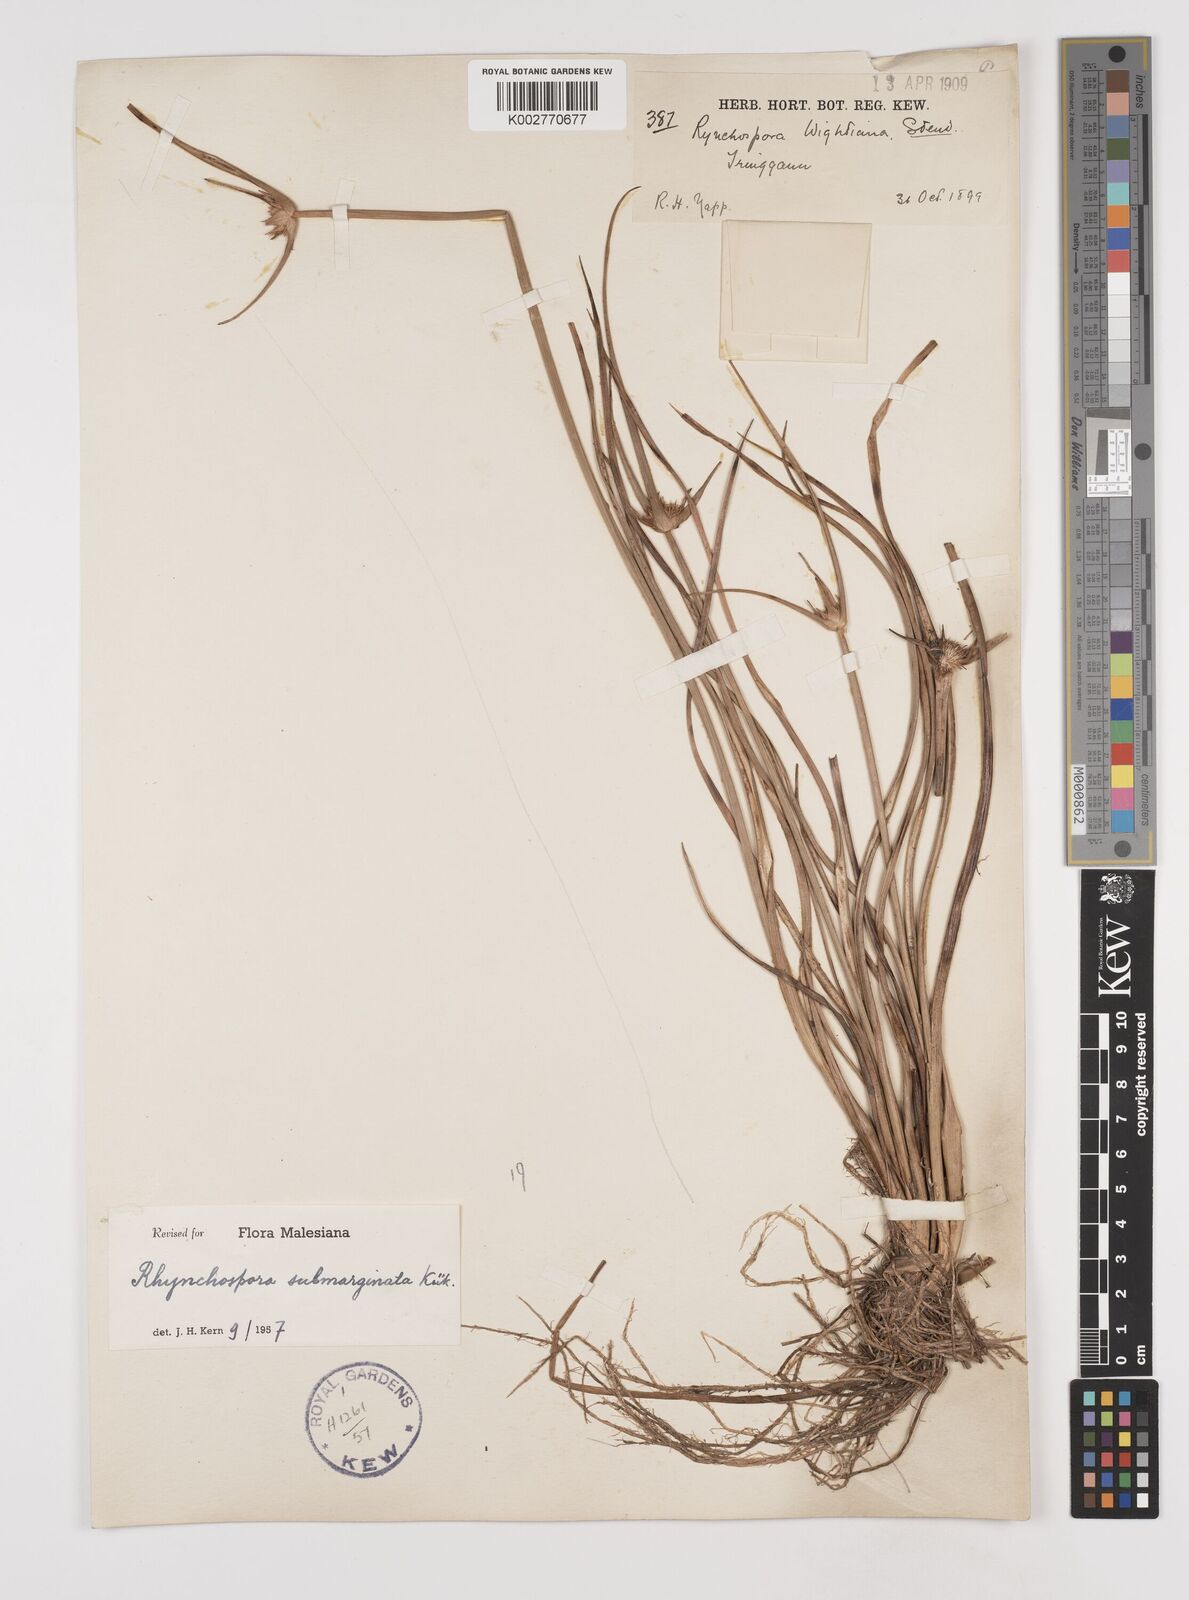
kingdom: Plantae
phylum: Tracheophyta
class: Liliopsida
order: Poales
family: Cyperaceae
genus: Rhynchospora
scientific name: Rhynchospora submarginata
